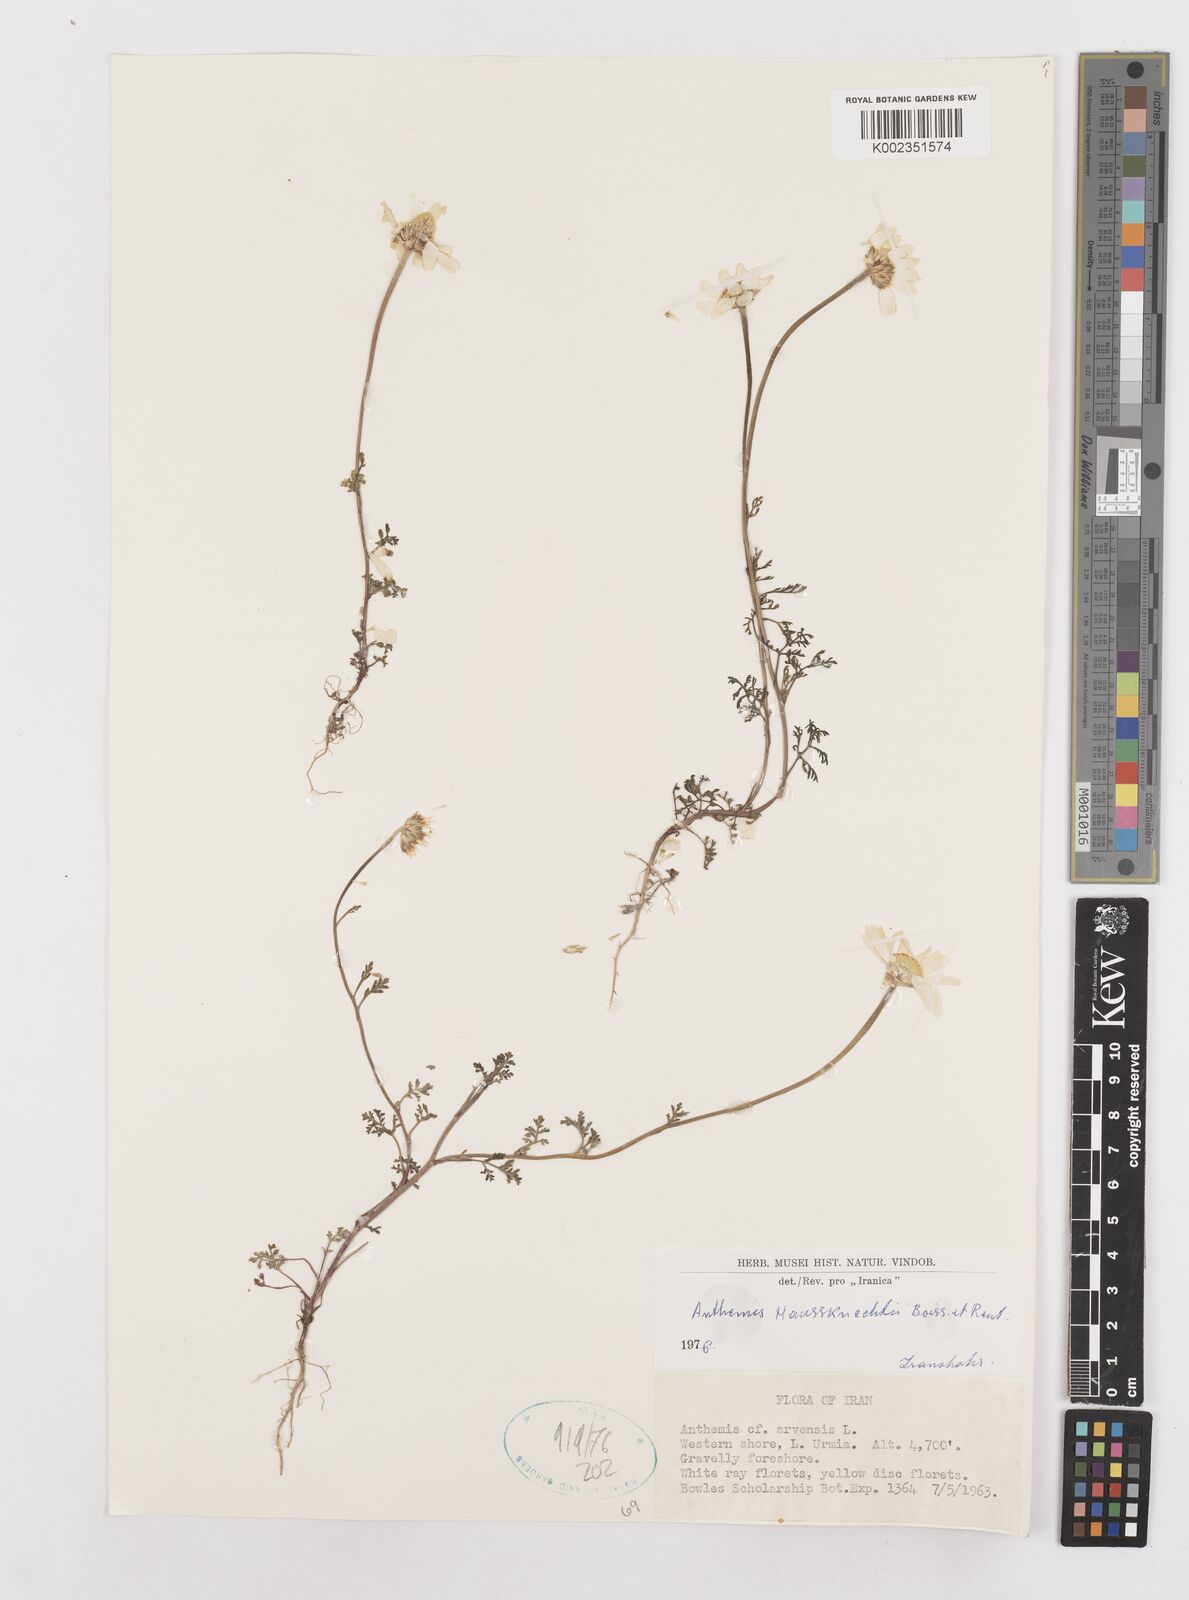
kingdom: Plantae
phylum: Tracheophyta
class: Magnoliopsida
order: Asterales
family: Asteraceae
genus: Anthemis
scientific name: Anthemis haussknechtii
